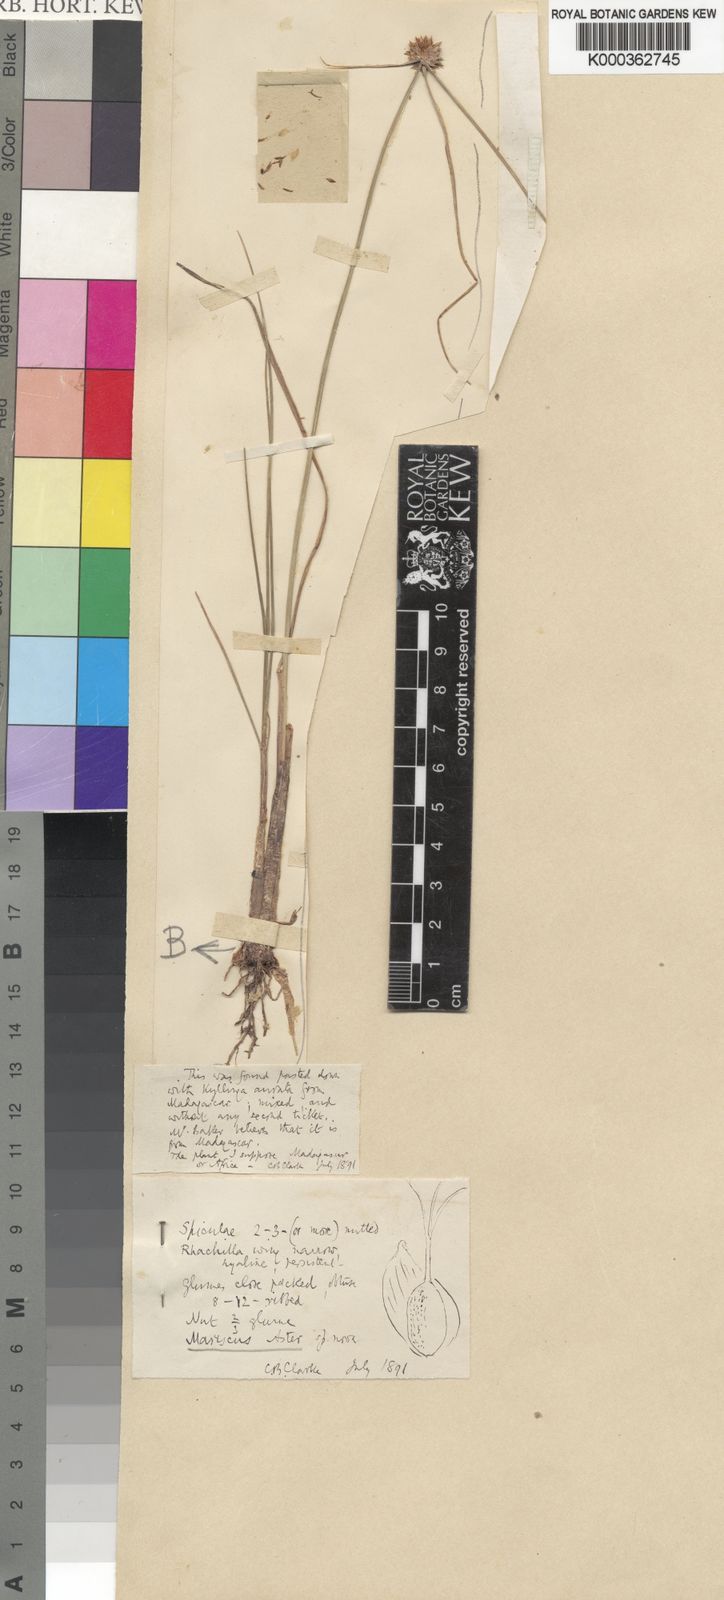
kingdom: Plantae
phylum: Tracheophyta
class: Liliopsida
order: Poales
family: Cyperaceae
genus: Cyperus
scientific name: Cyperus
